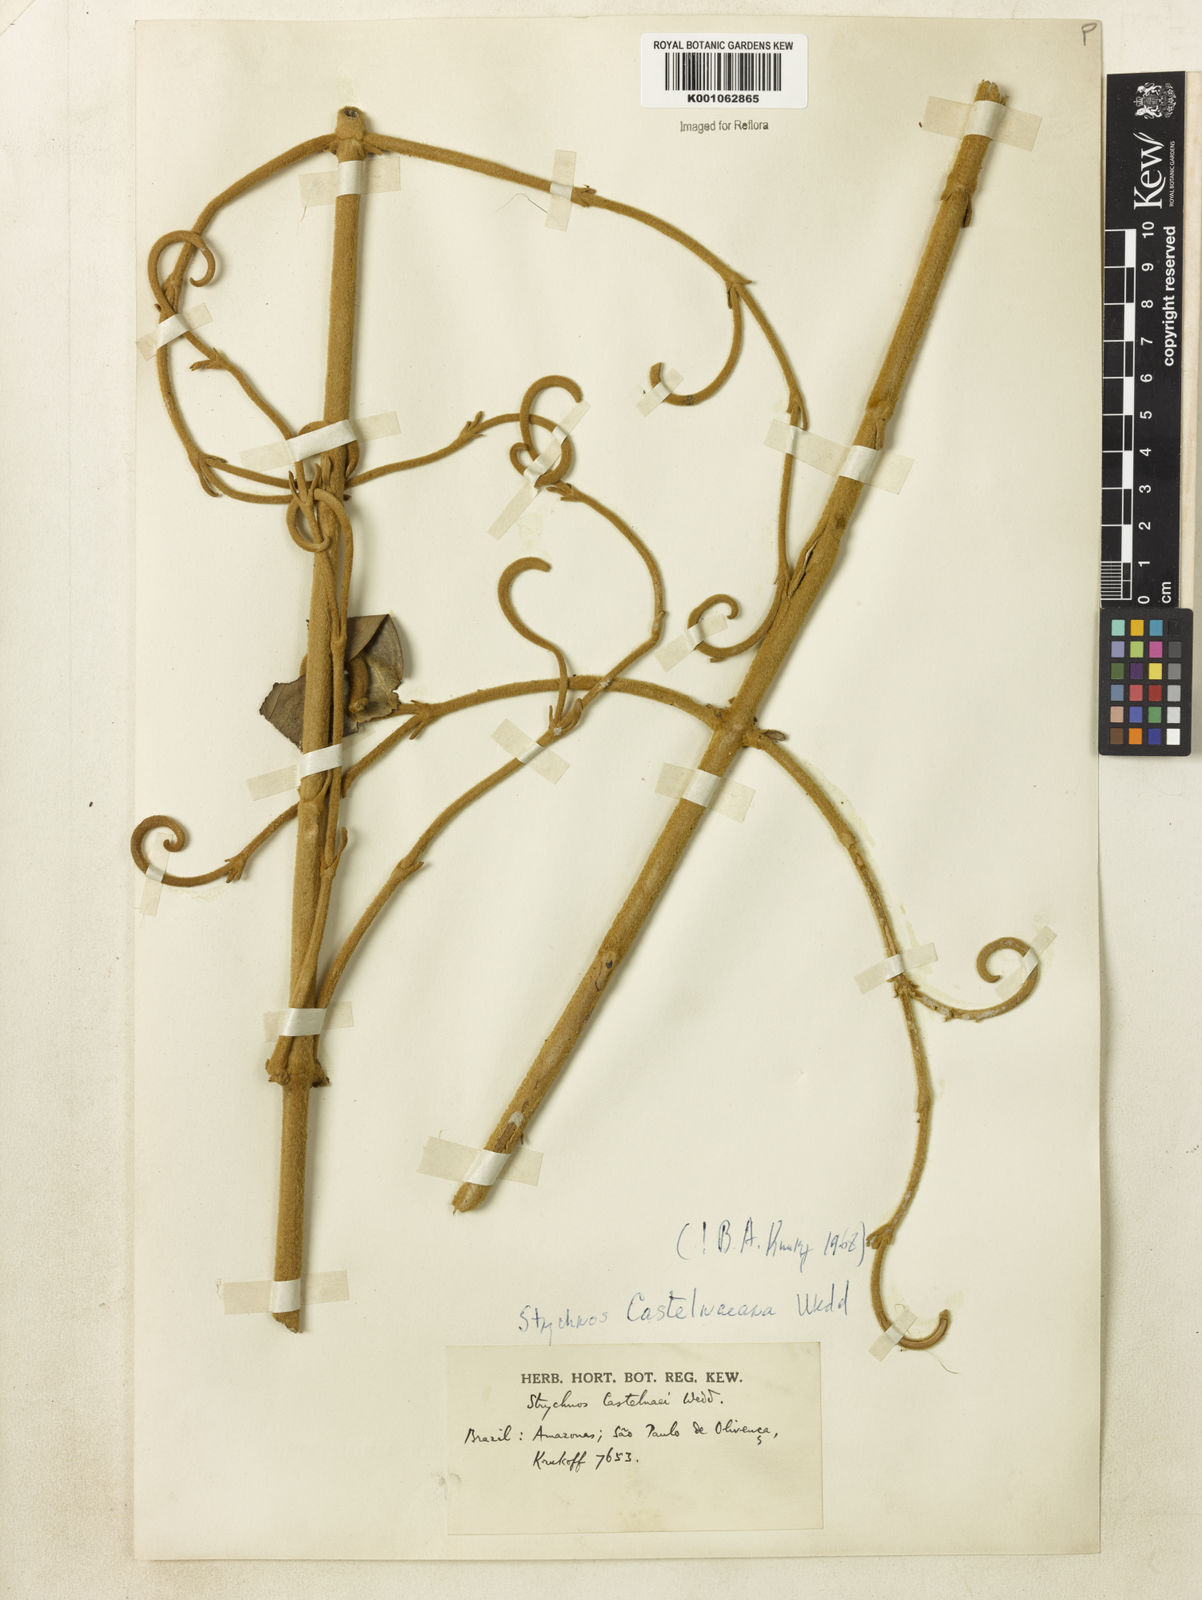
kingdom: Plantae
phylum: Tracheophyta
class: Magnoliopsida
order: Gentianales
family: Loganiaceae
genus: Strychnos
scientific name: Strychnos
